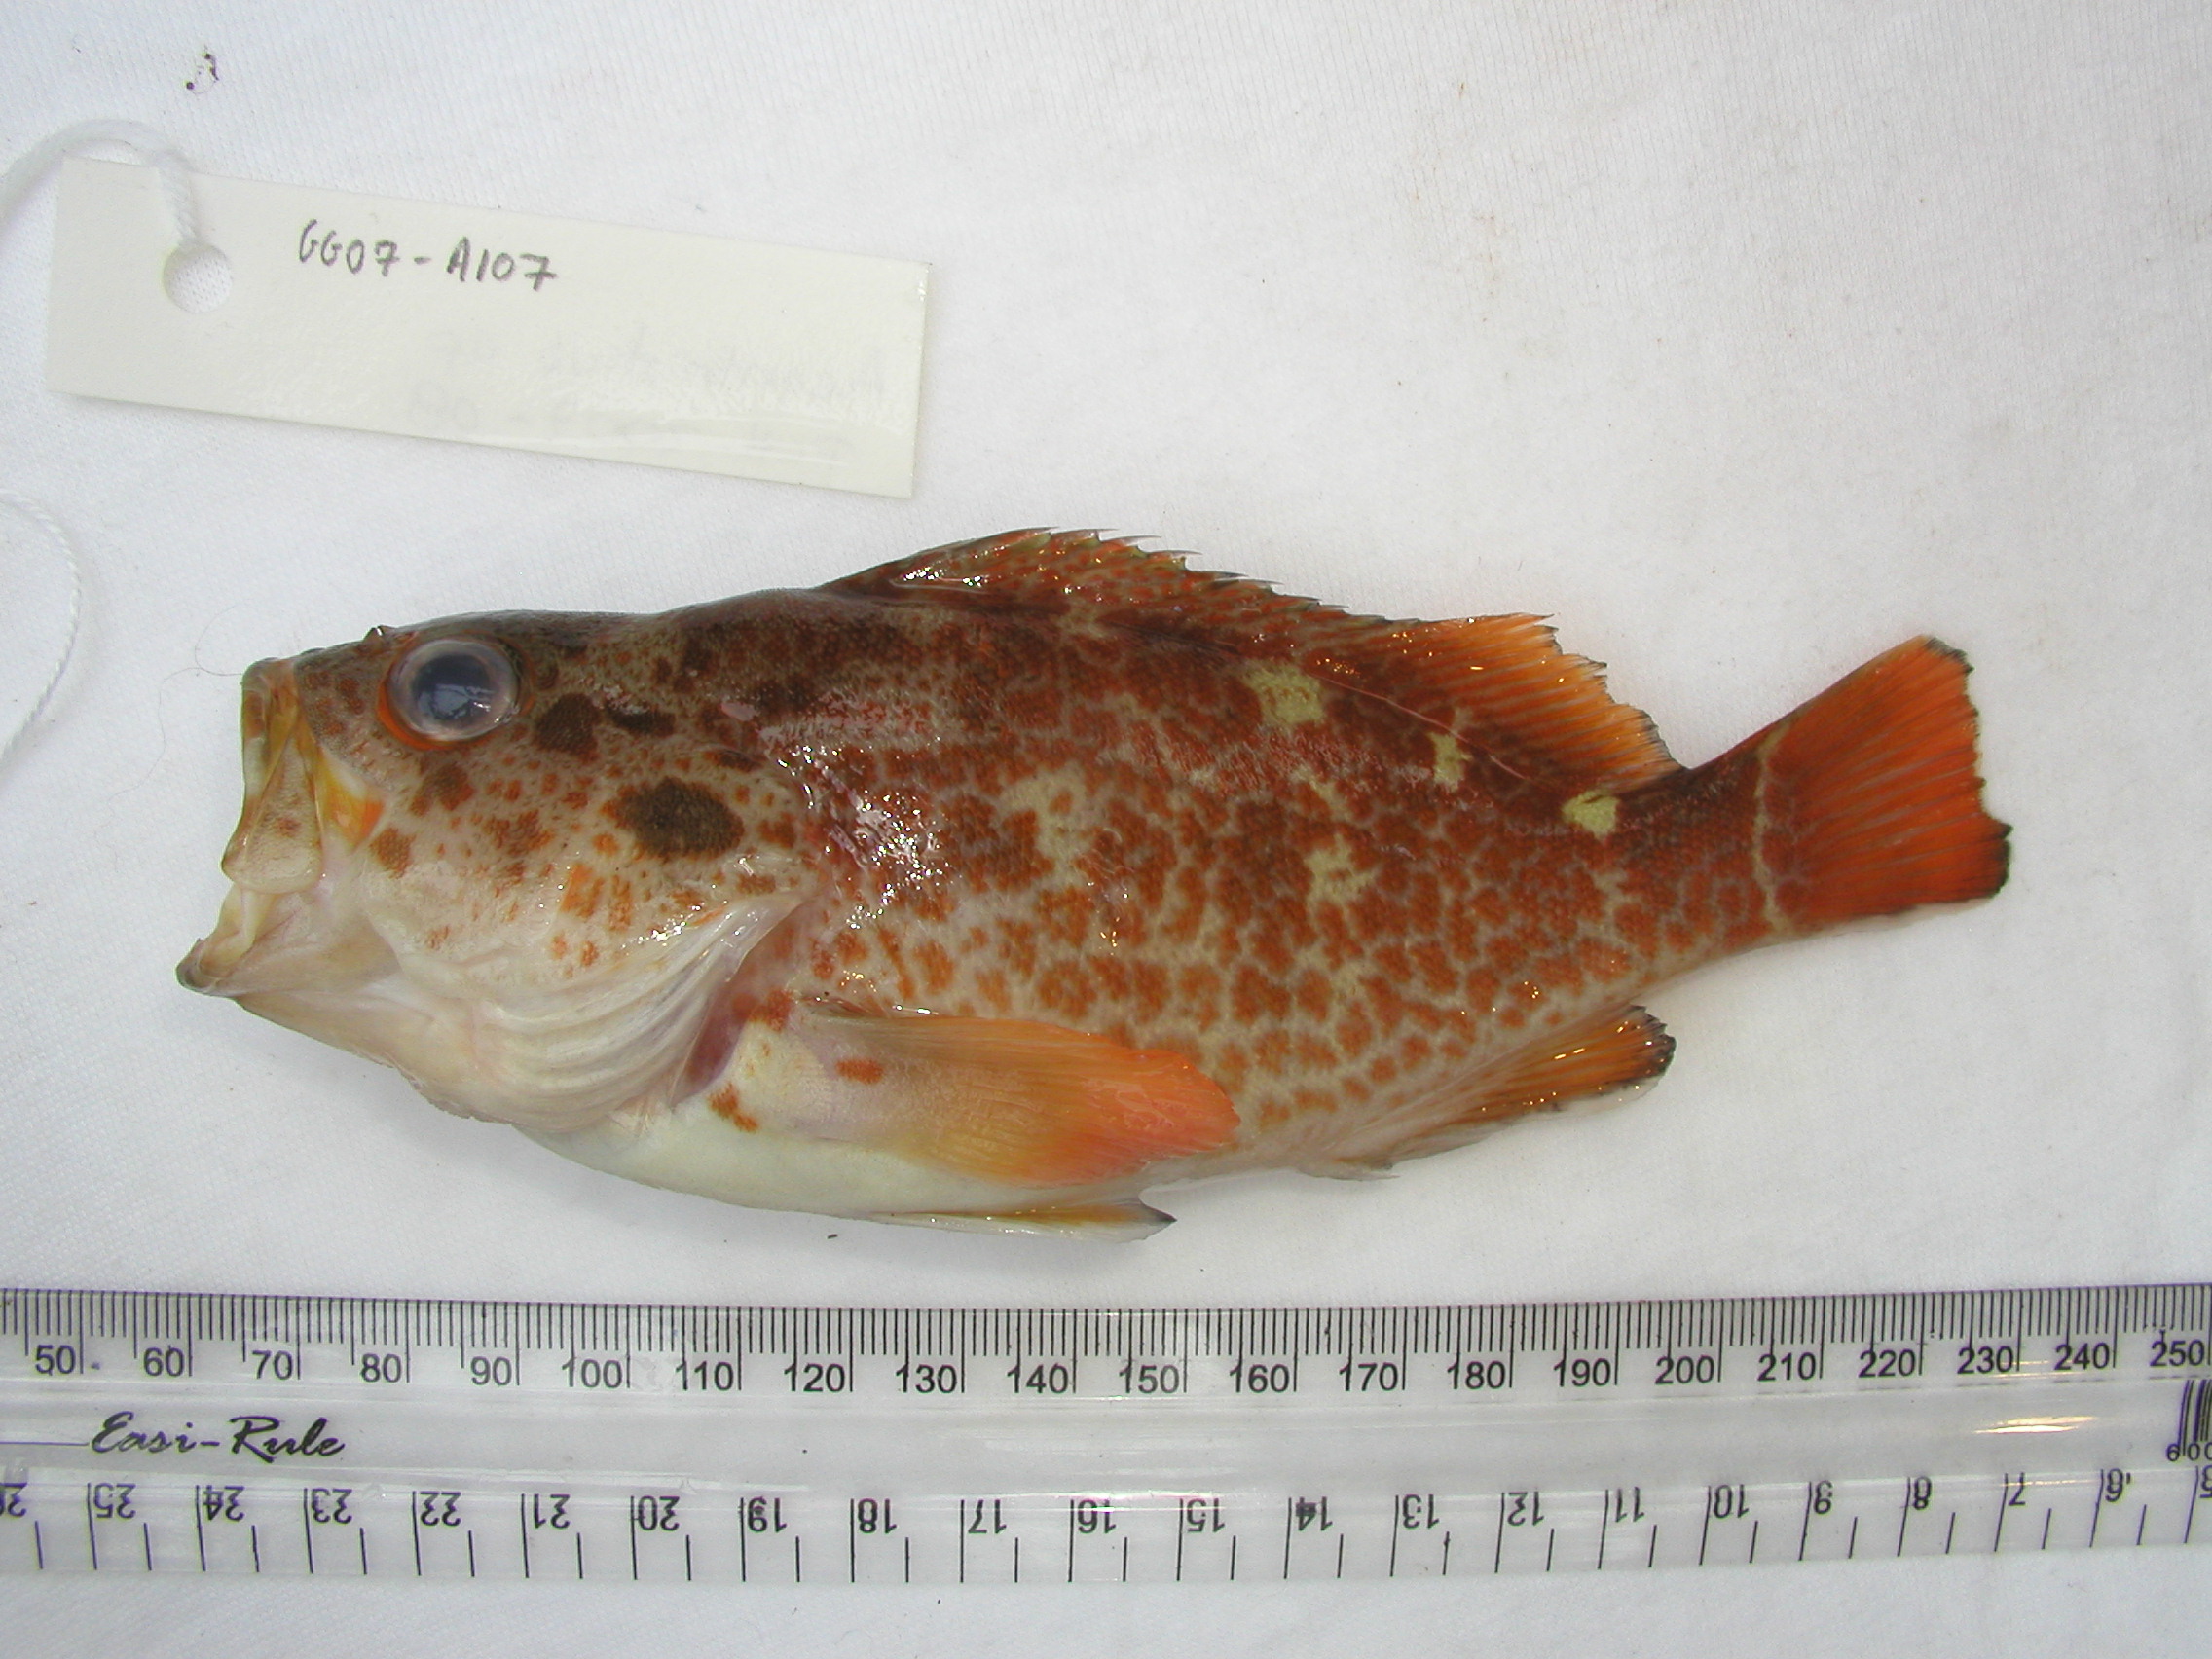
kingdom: Animalia
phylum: Chordata
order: Perciformes
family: Serranidae
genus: Acanthistius
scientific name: Acanthistius joanae
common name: Scalyjaw koester
